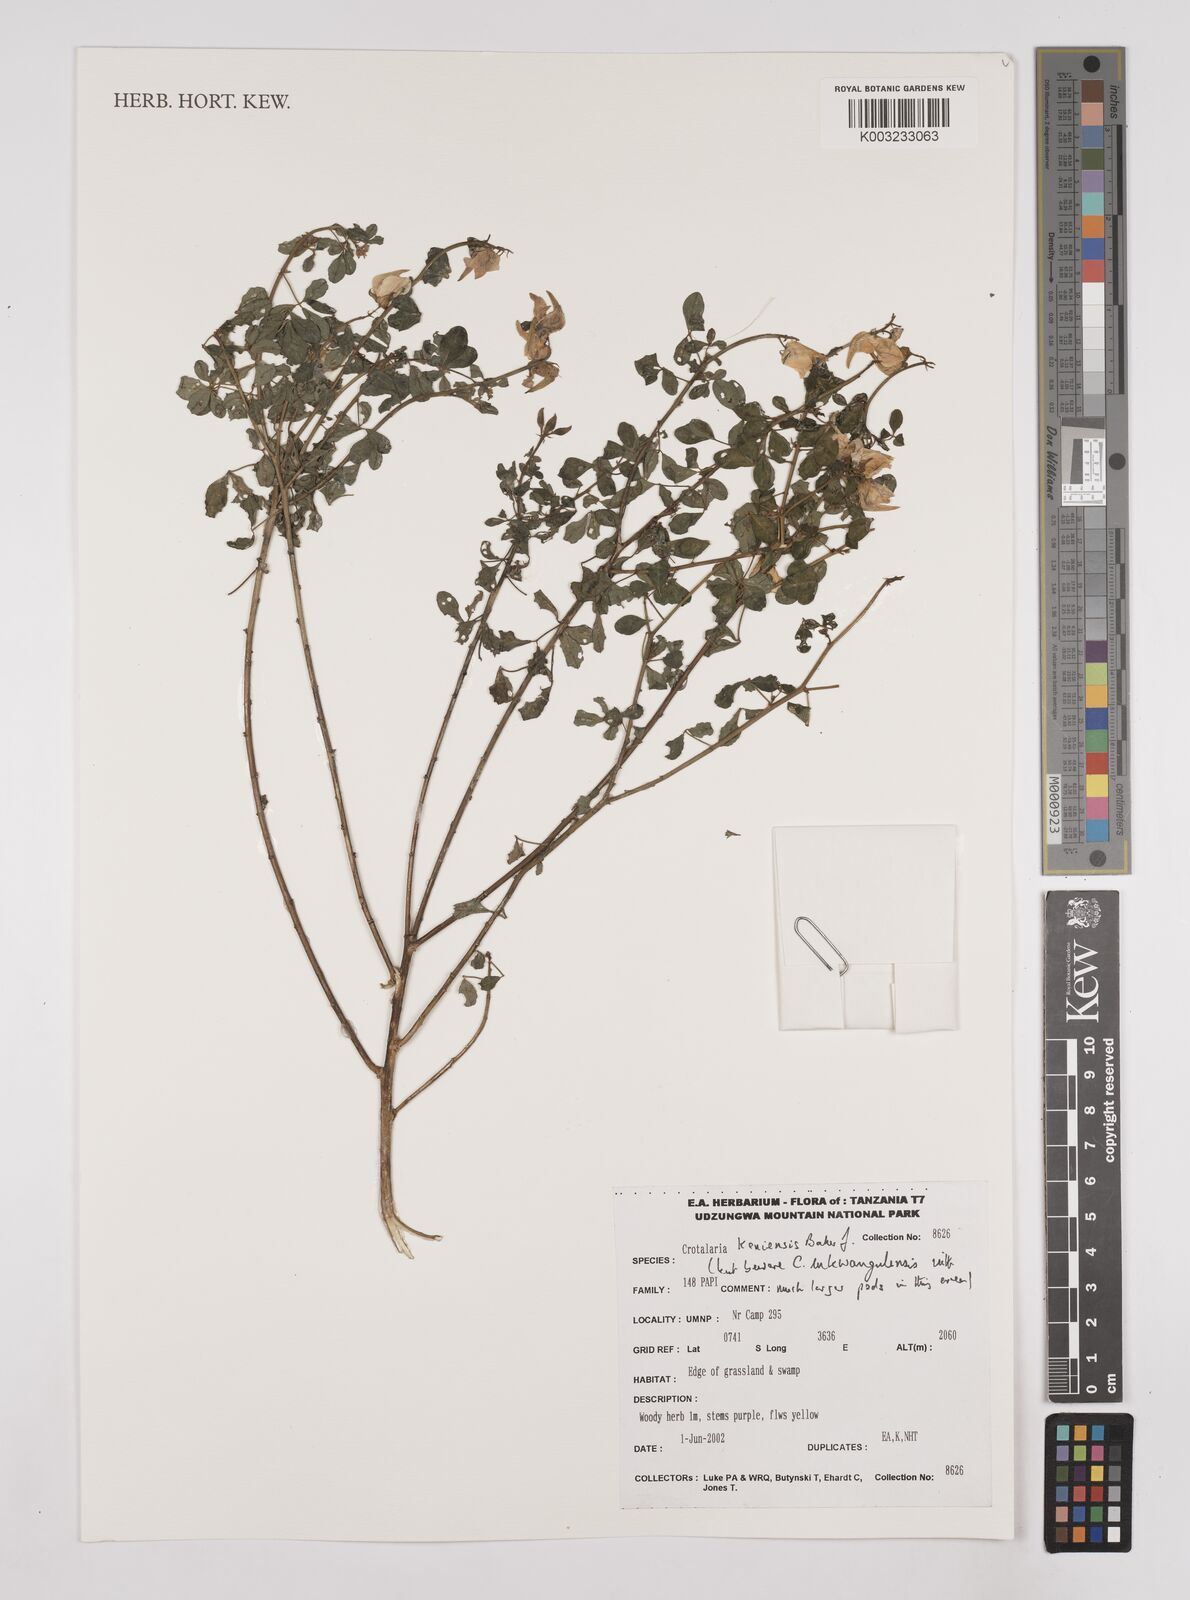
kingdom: Plantae
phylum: Tracheophyta
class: Magnoliopsida
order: Fabales
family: Fabaceae
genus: Crotalaria
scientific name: Crotalaria keniensis
